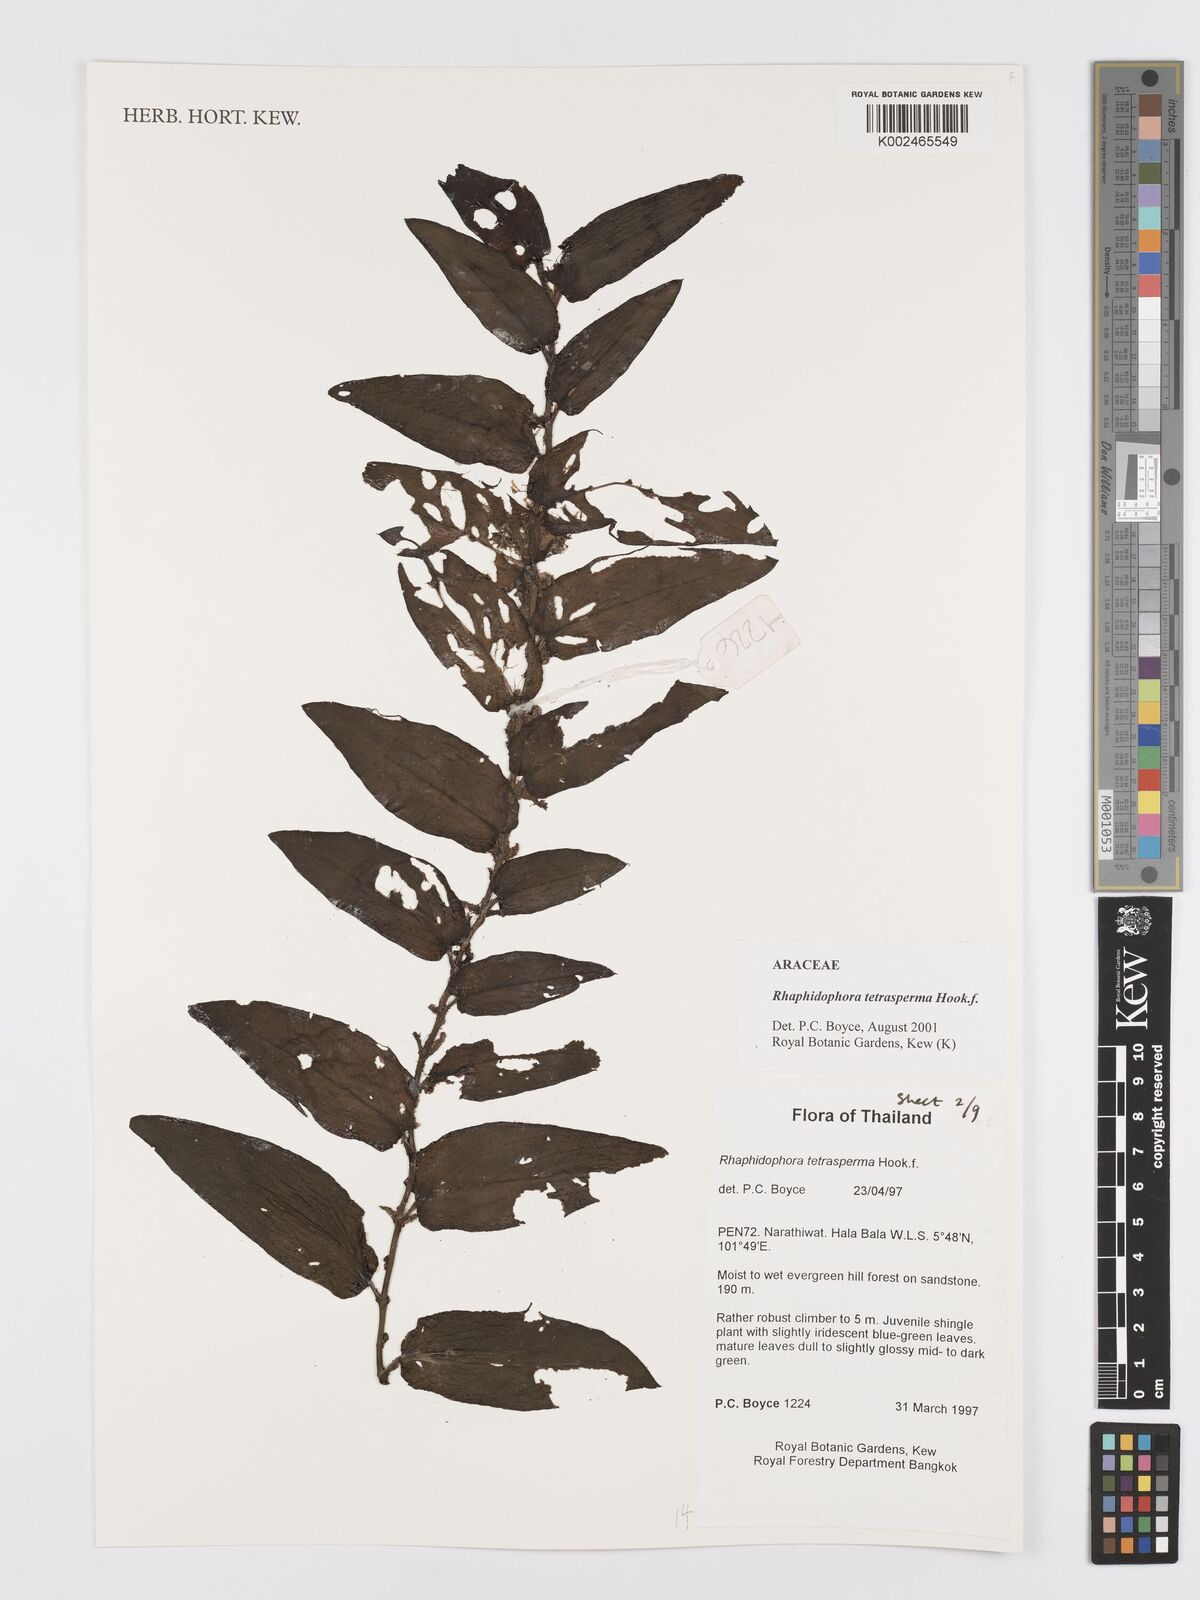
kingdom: Plantae
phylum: Tracheophyta
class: Liliopsida
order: Alismatales
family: Araceae
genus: Rhaphidophora
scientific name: Rhaphidophora tetrasperma
